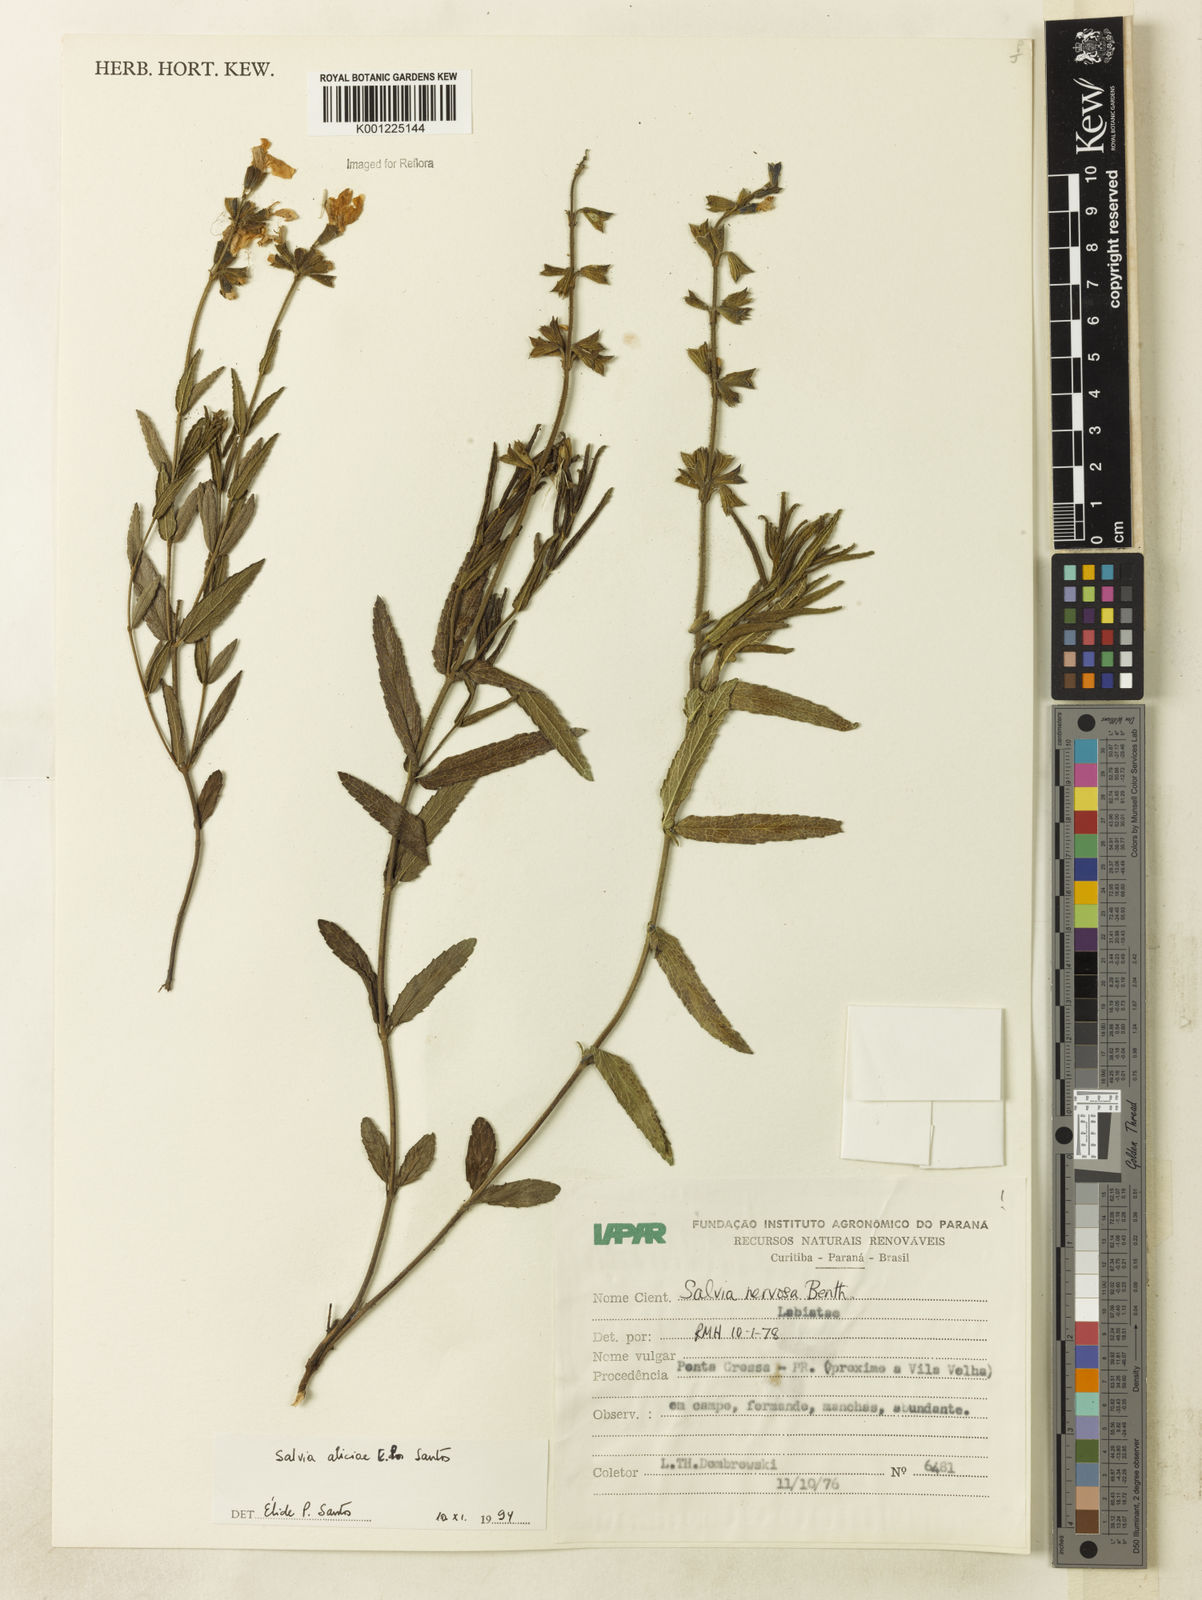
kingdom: Plantae
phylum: Tracheophyta
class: Magnoliopsida
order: Lamiales
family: Lamiaceae
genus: Salvia
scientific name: Salvia aliciae
